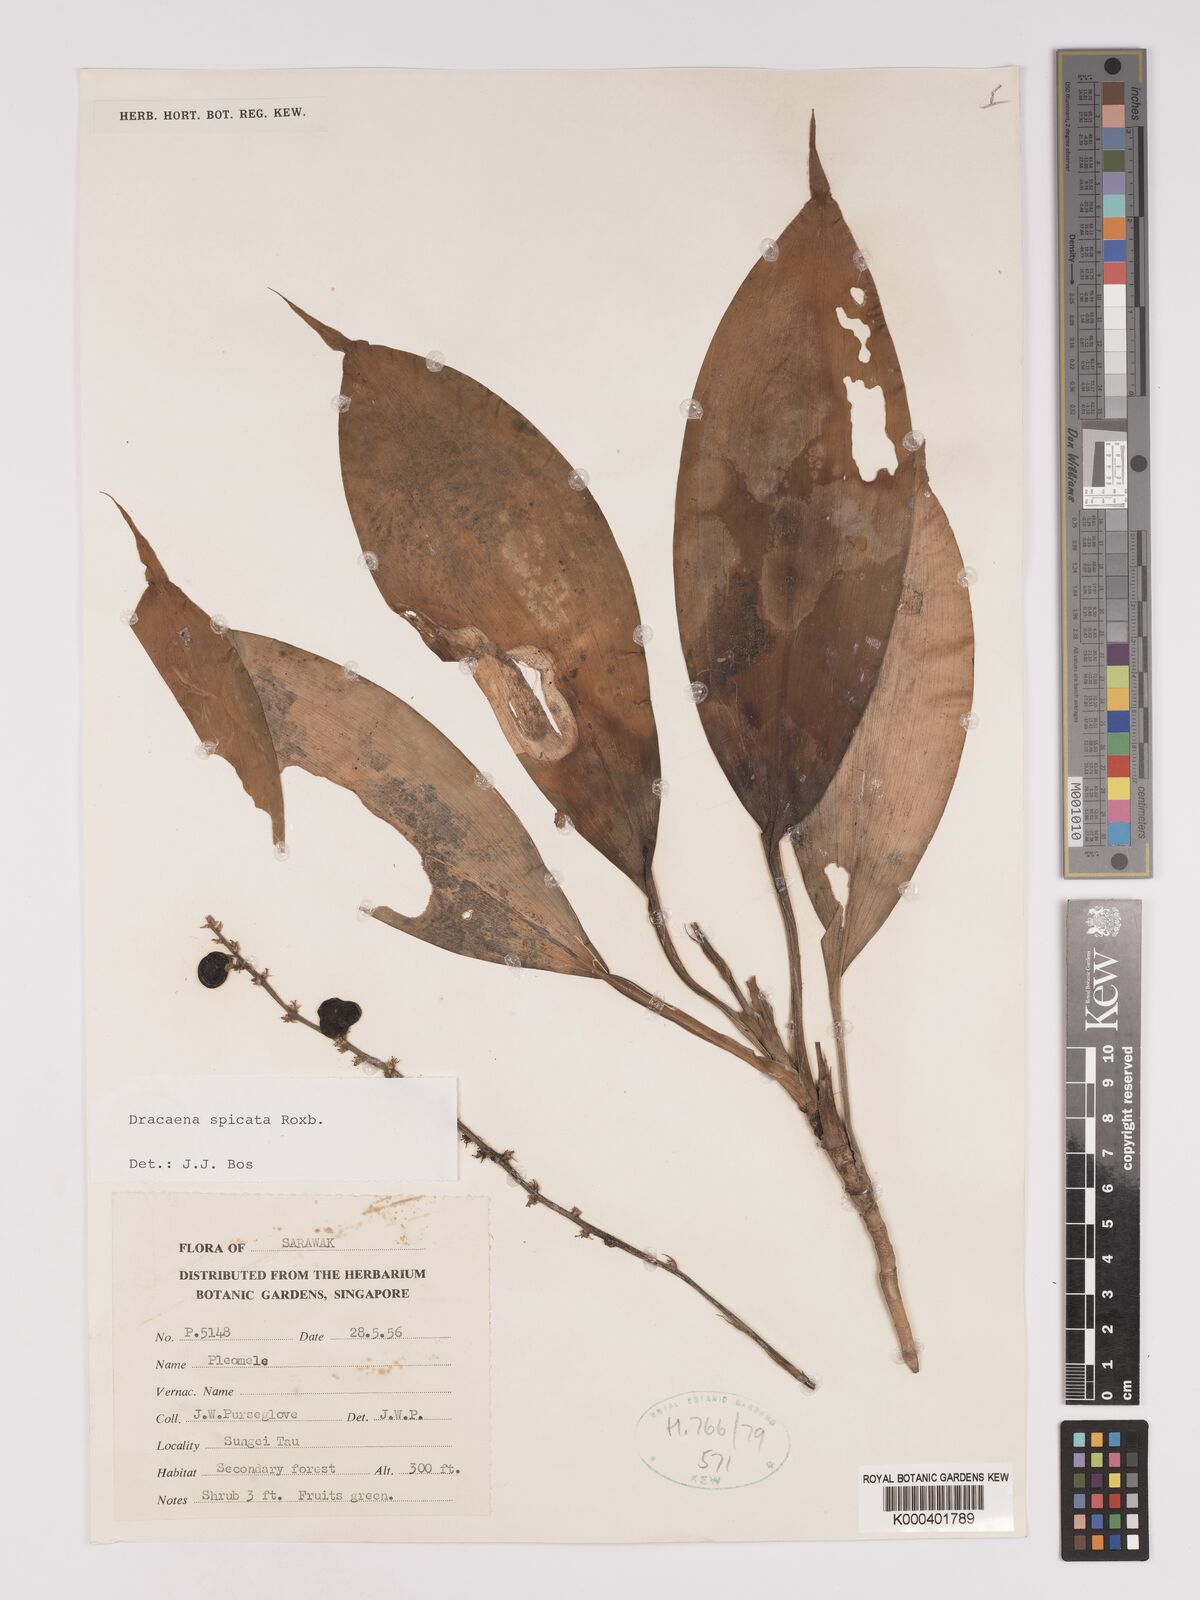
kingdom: Plantae
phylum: Tracheophyta
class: Liliopsida
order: Asparagales
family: Asparagaceae
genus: Dracaena
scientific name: Dracaena spicata
